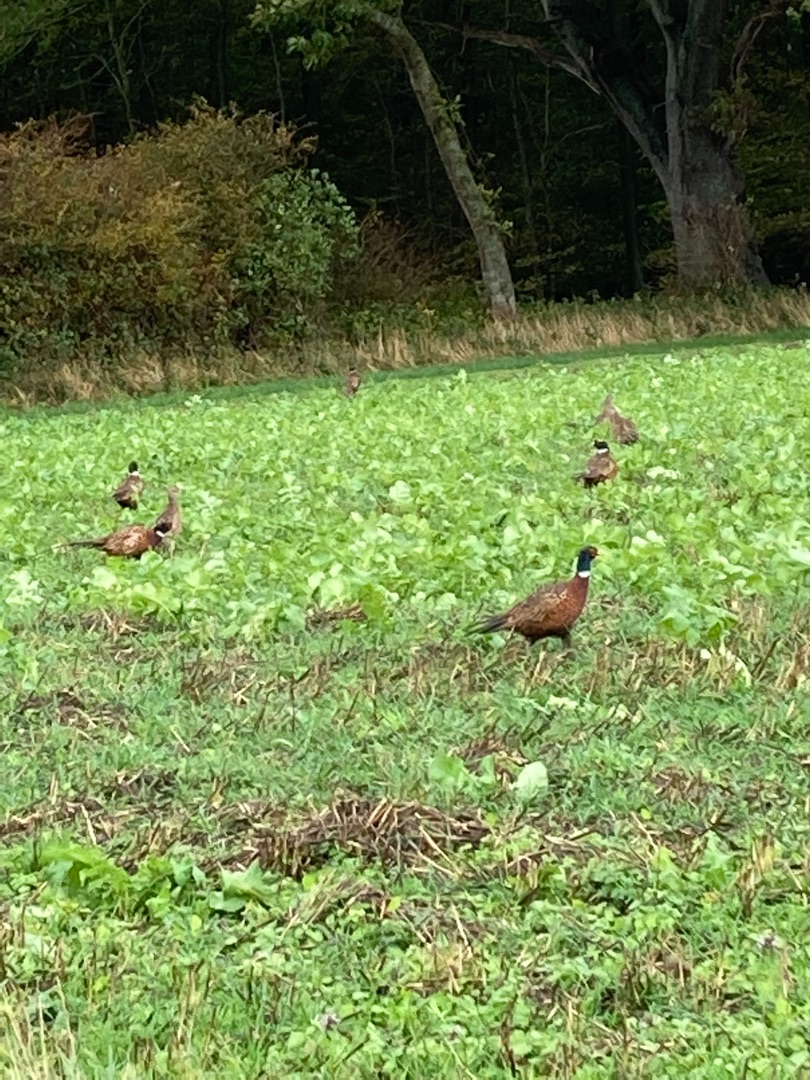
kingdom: Animalia
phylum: Chordata
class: Aves
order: Galliformes
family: Phasianidae
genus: Phasianus
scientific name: Phasianus colchicus
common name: Fasan
